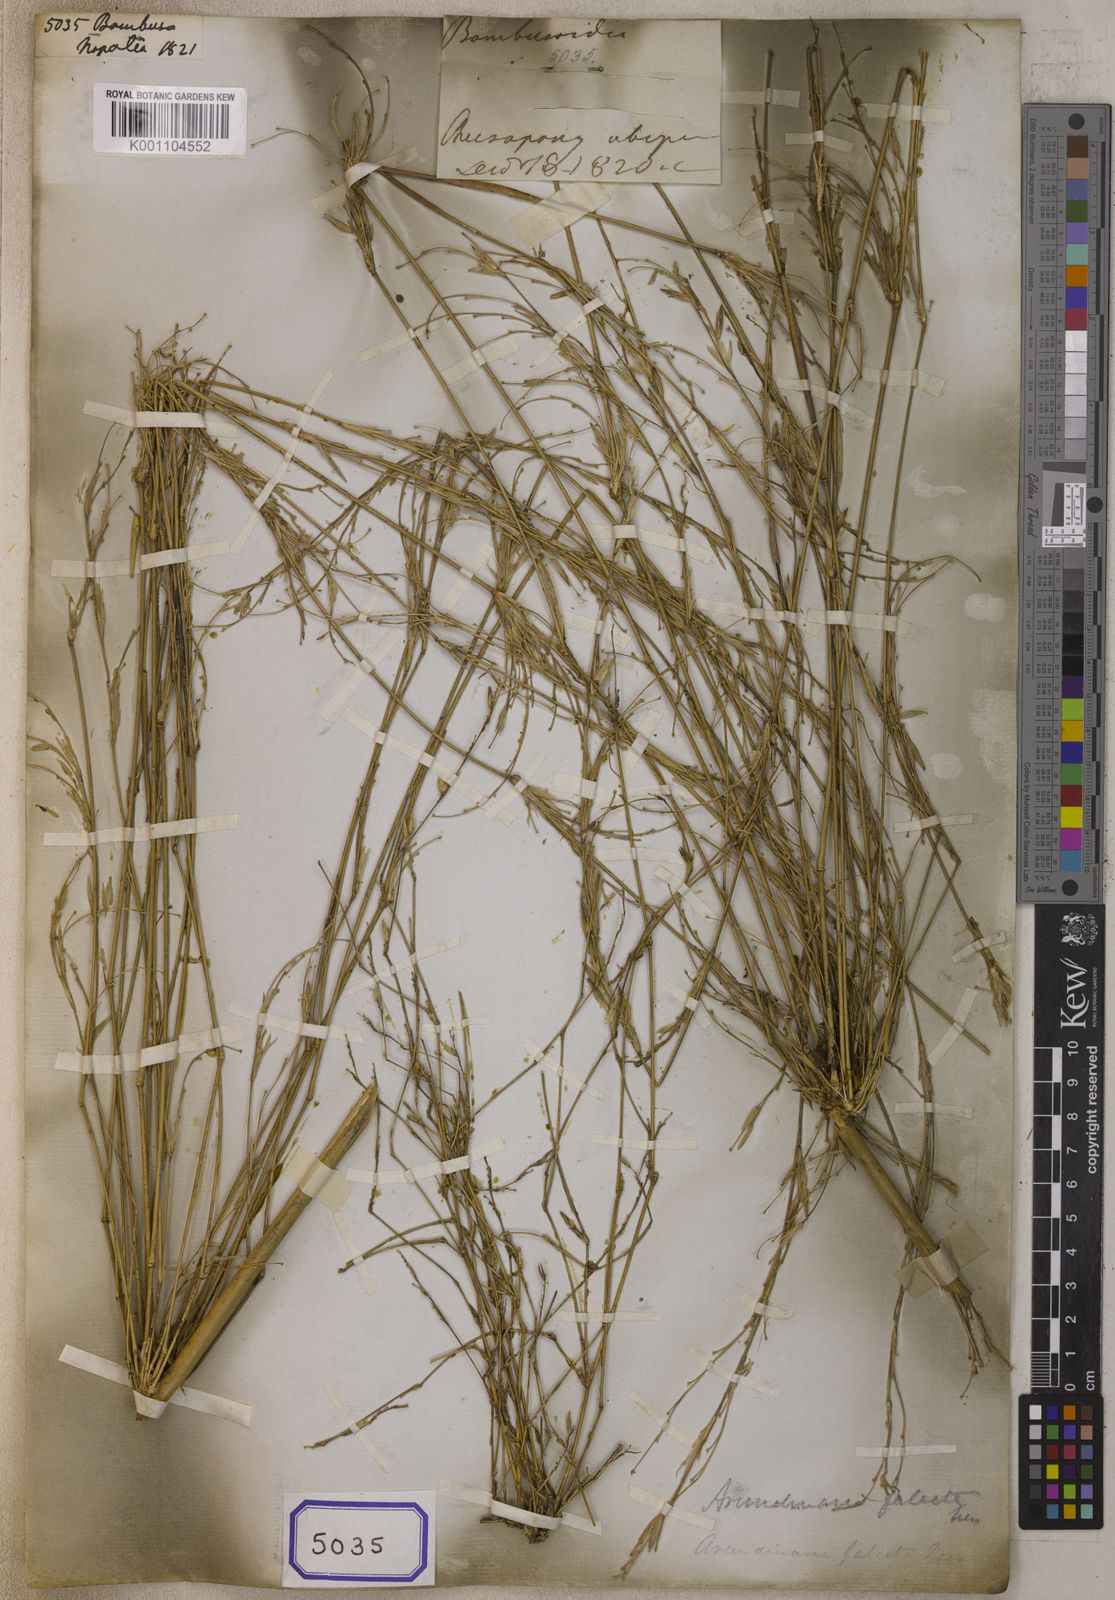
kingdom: Plantae
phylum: Tracheophyta
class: Liliopsida
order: Poales
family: Poaceae
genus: Bambusa
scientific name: Bambusa
